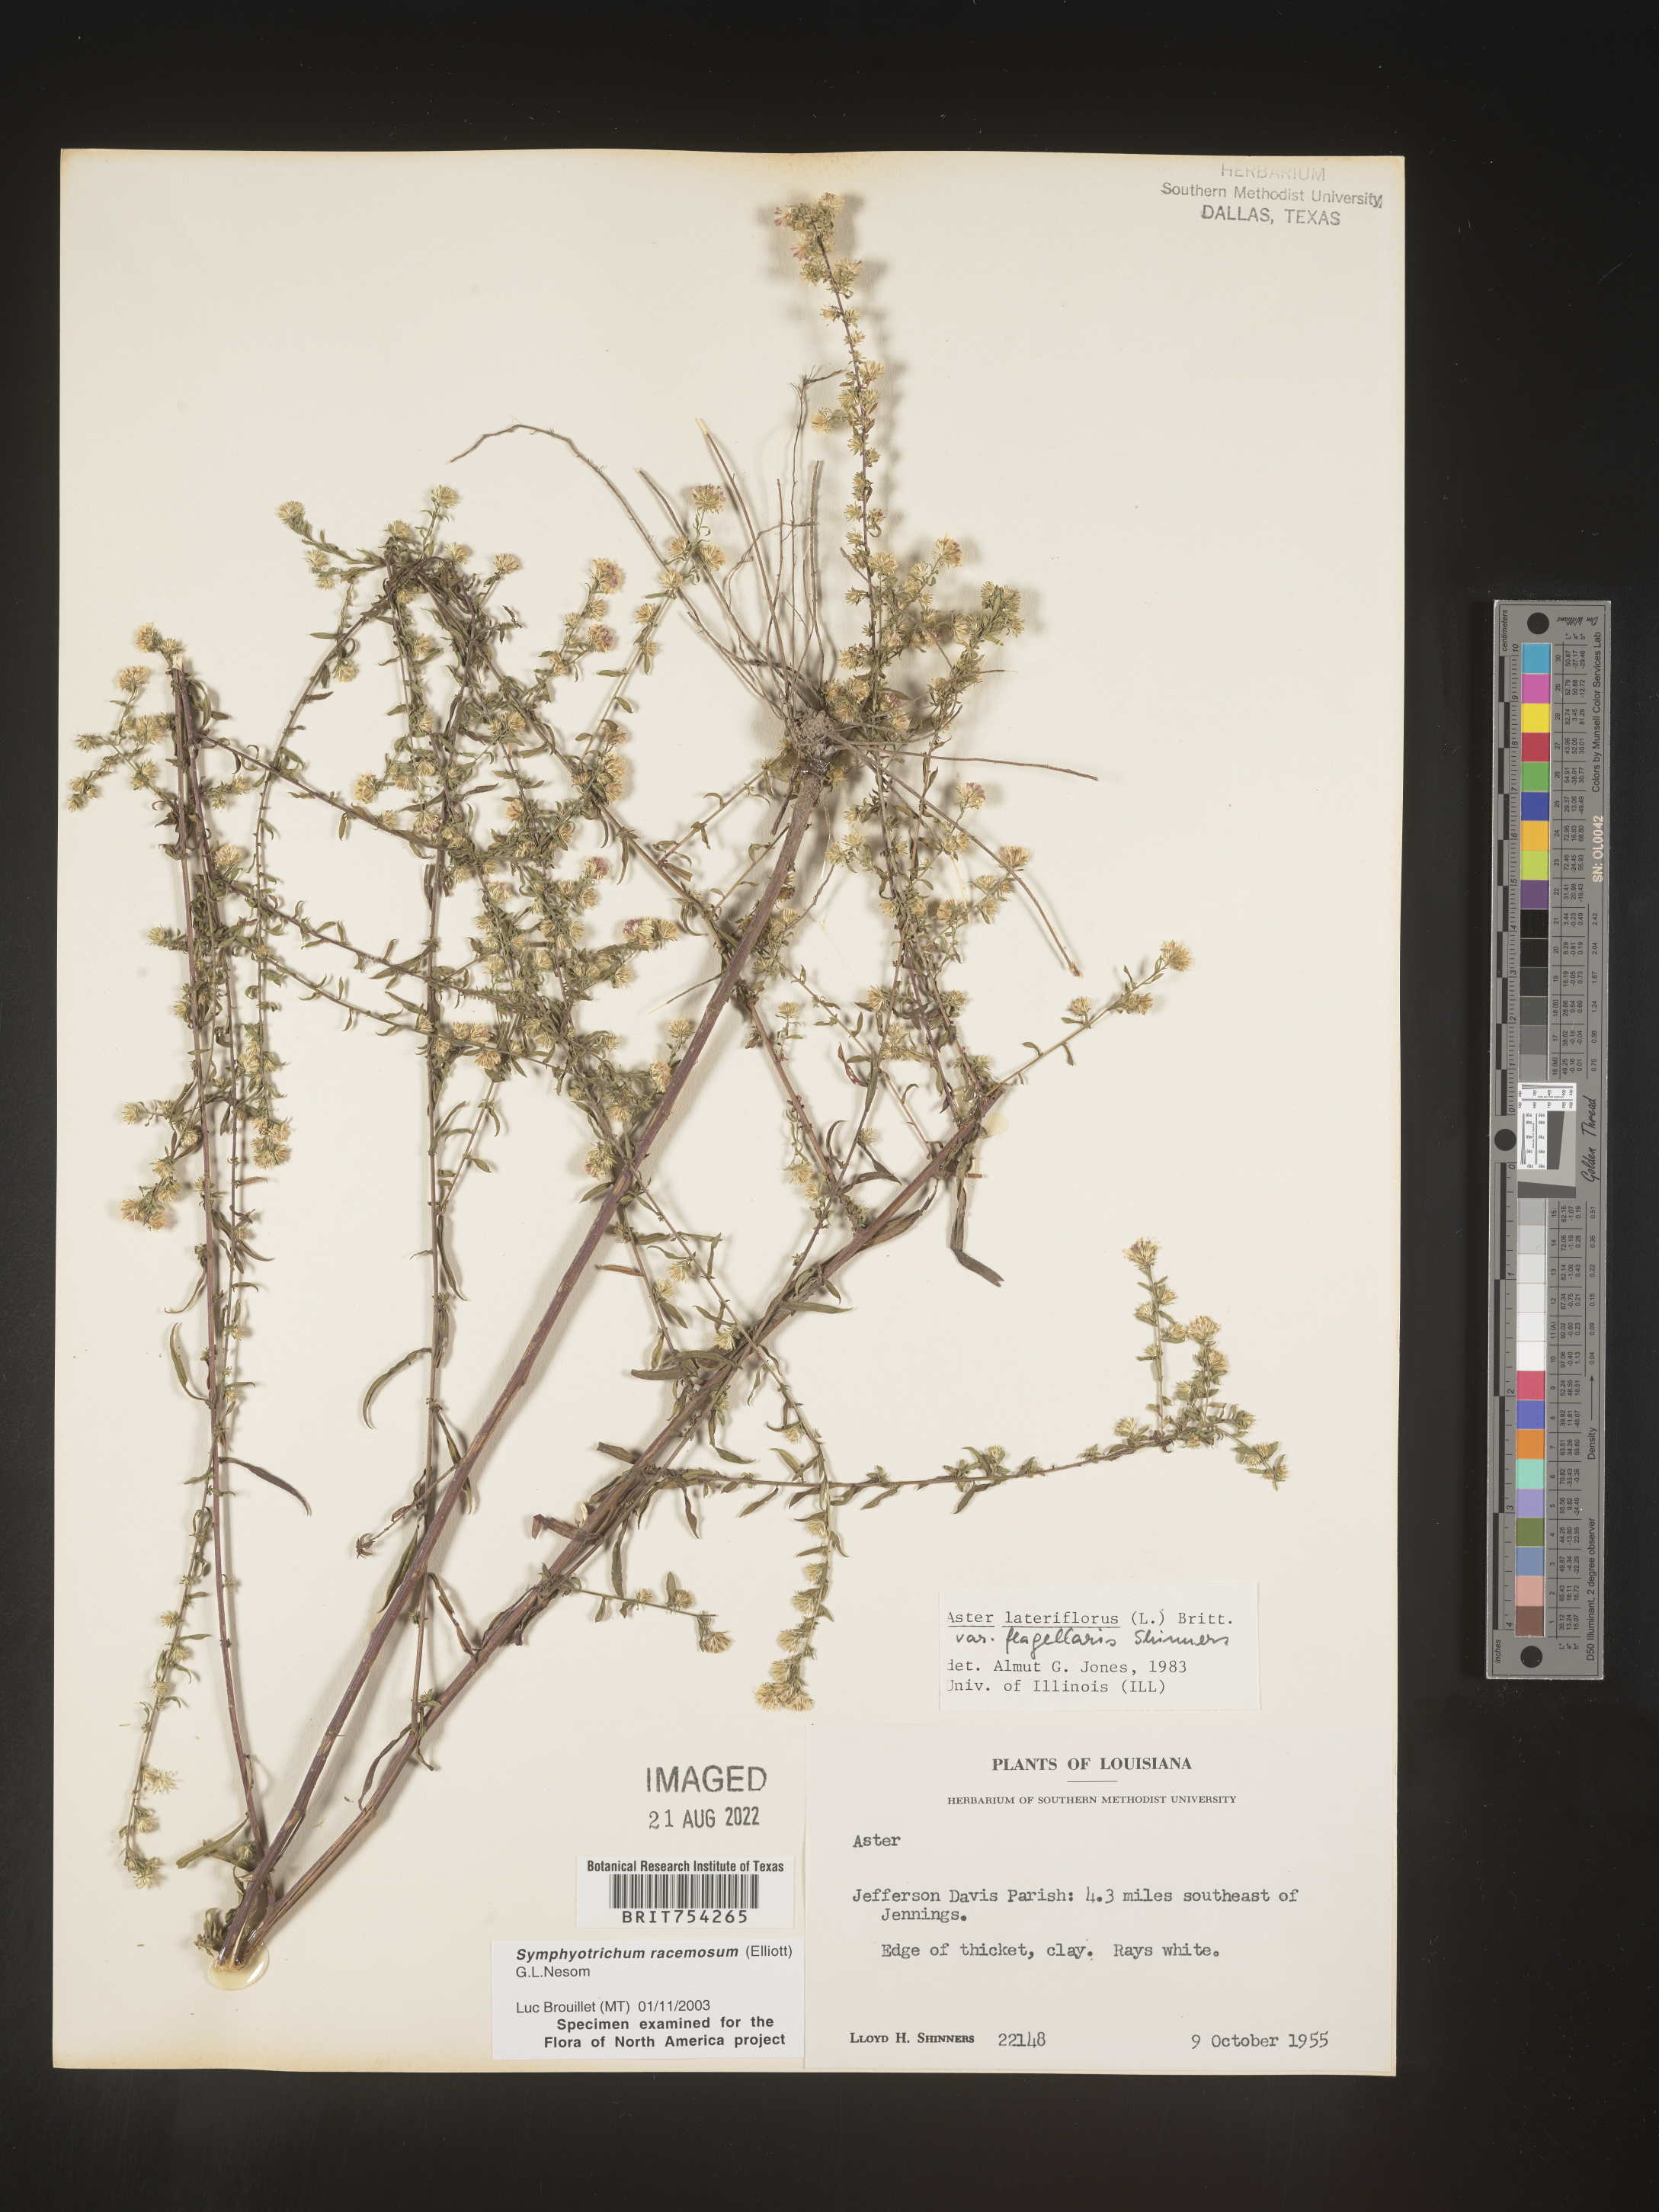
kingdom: Plantae
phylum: Tracheophyta
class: Magnoliopsida
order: Asterales
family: Asteraceae
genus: Symphyotrichum
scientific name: Symphyotrichum racemosum
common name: Small white aster
